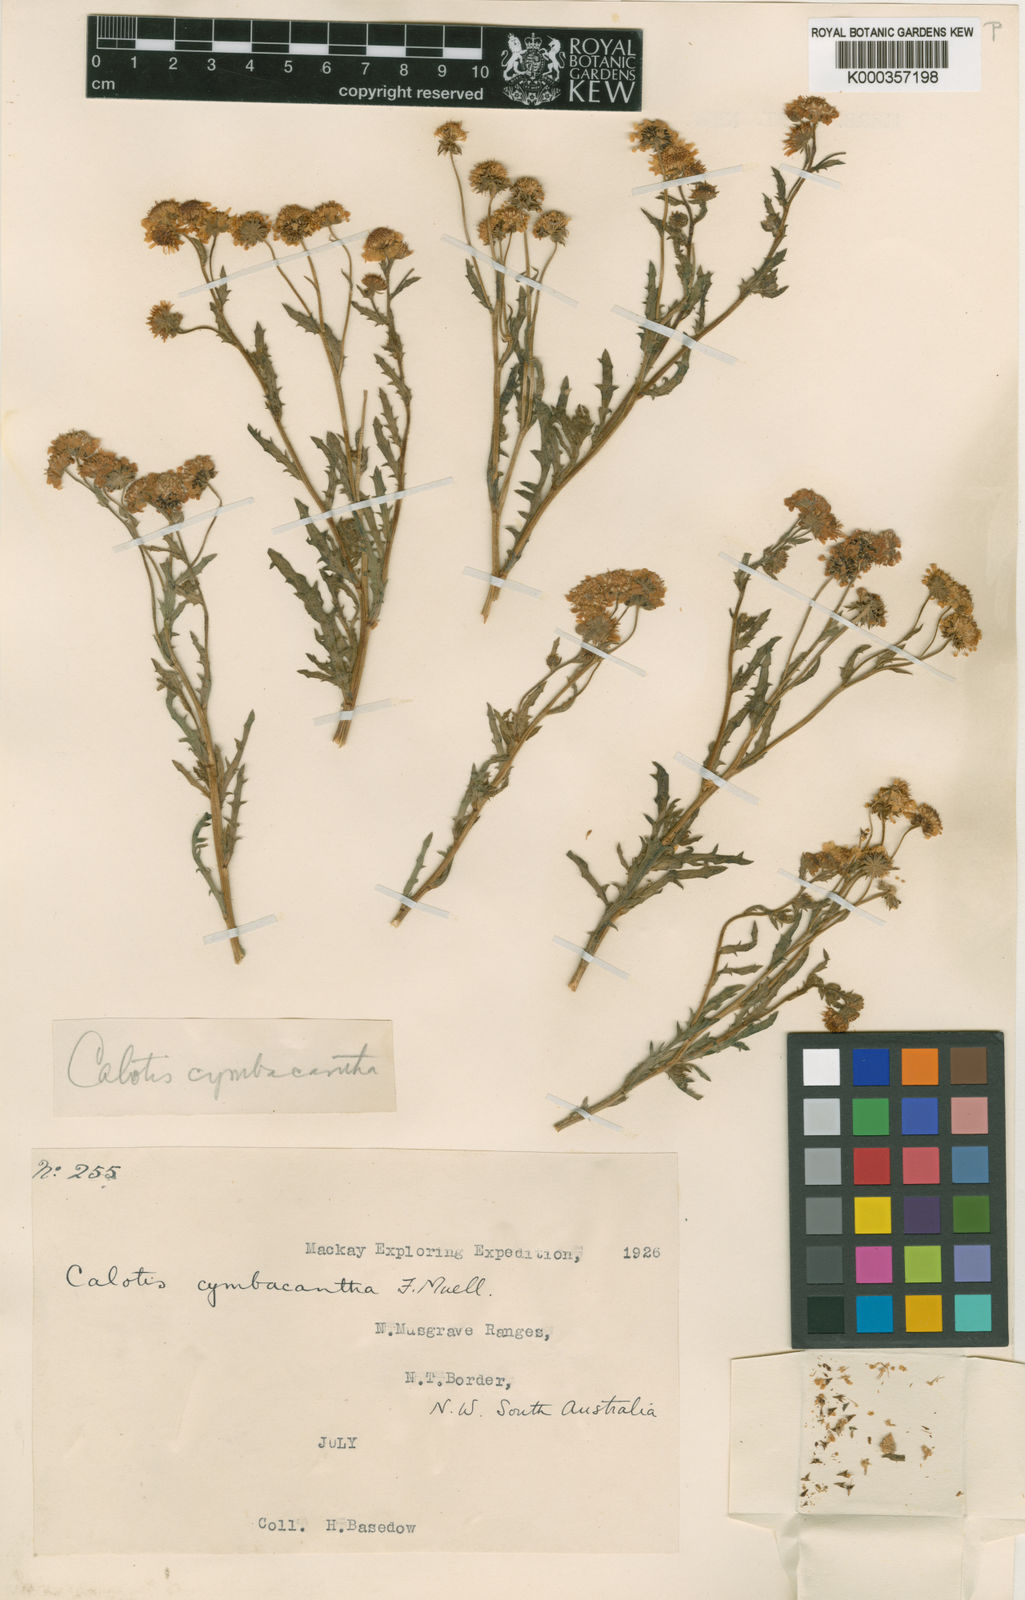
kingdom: Plantae
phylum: Tracheophyta
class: Magnoliopsida
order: Asterales
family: Asteraceae
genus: Calotis
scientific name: Calotis cymbacantha
